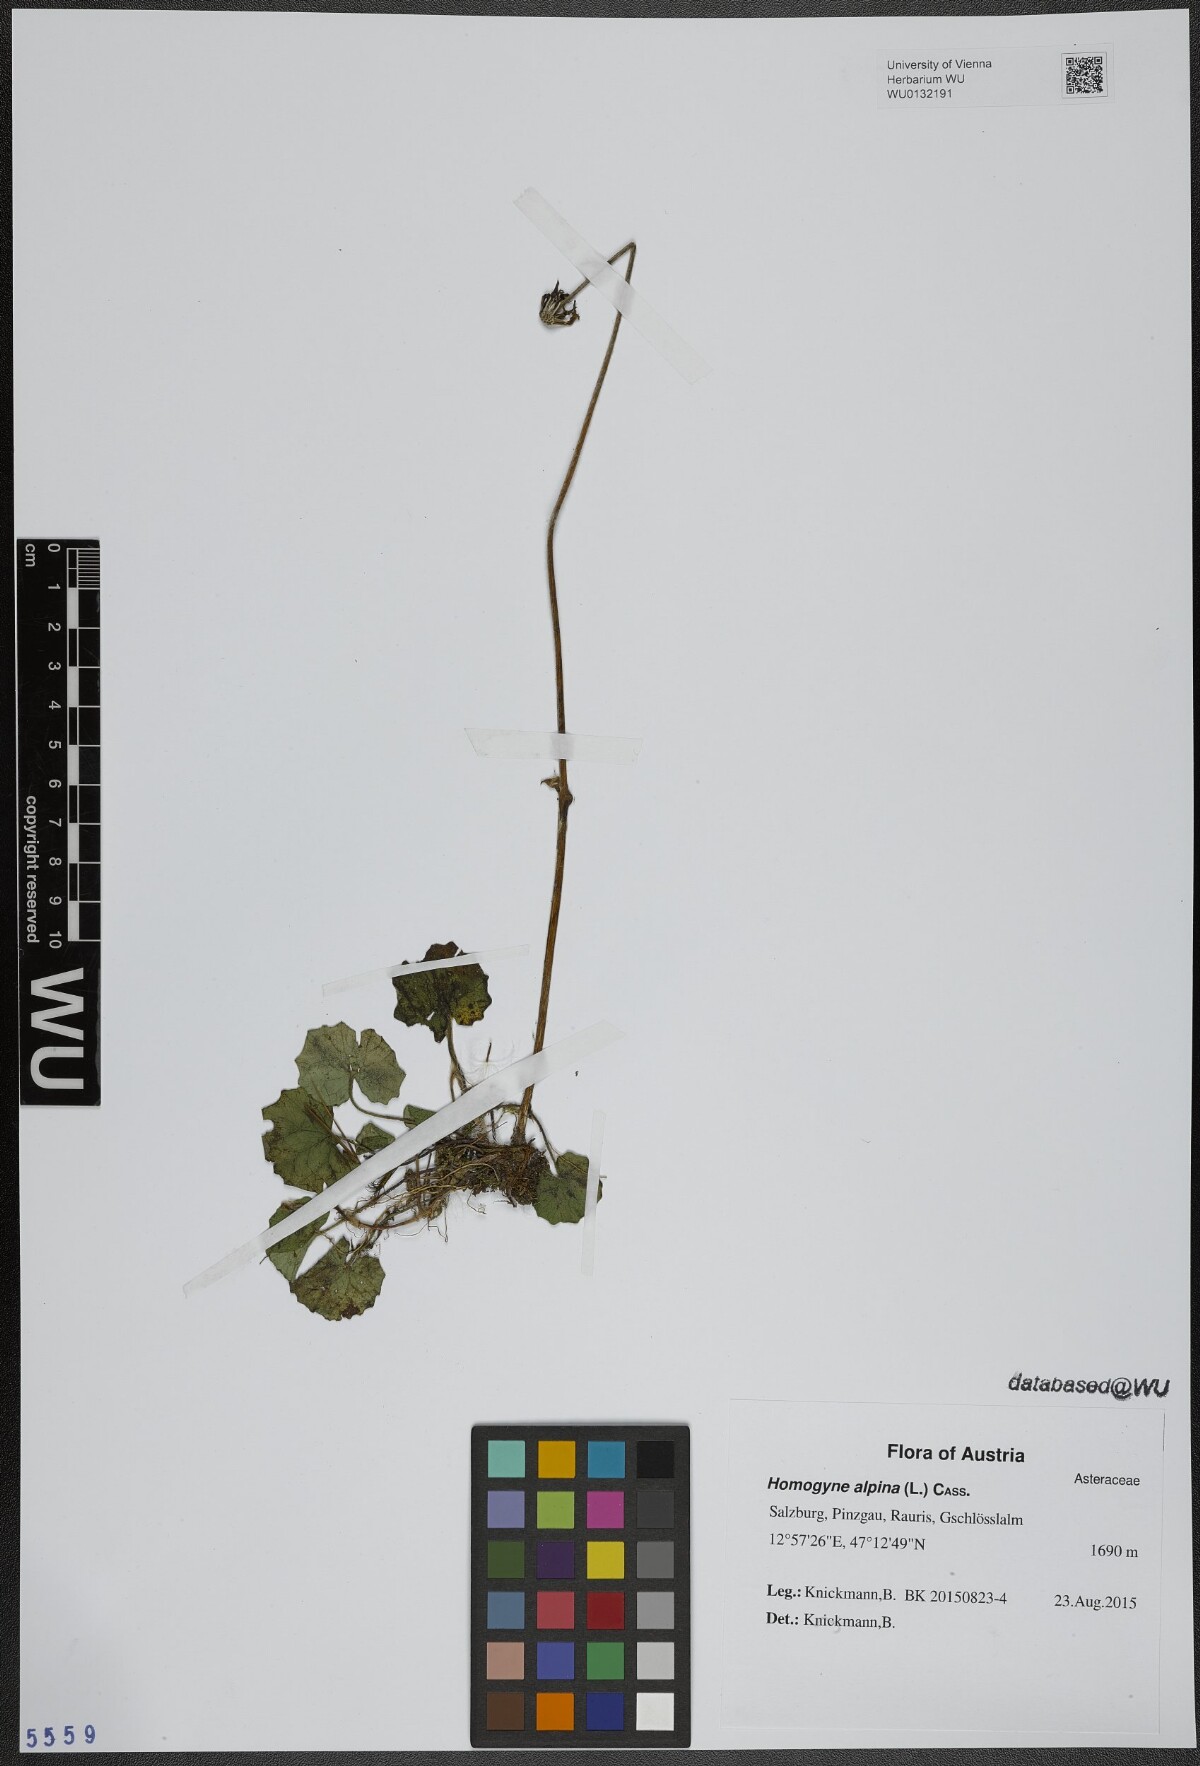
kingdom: Plantae
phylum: Tracheophyta
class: Magnoliopsida
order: Asterales
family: Asteraceae
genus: Homogyne
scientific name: Homogyne alpina
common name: Purple colt's-foot
